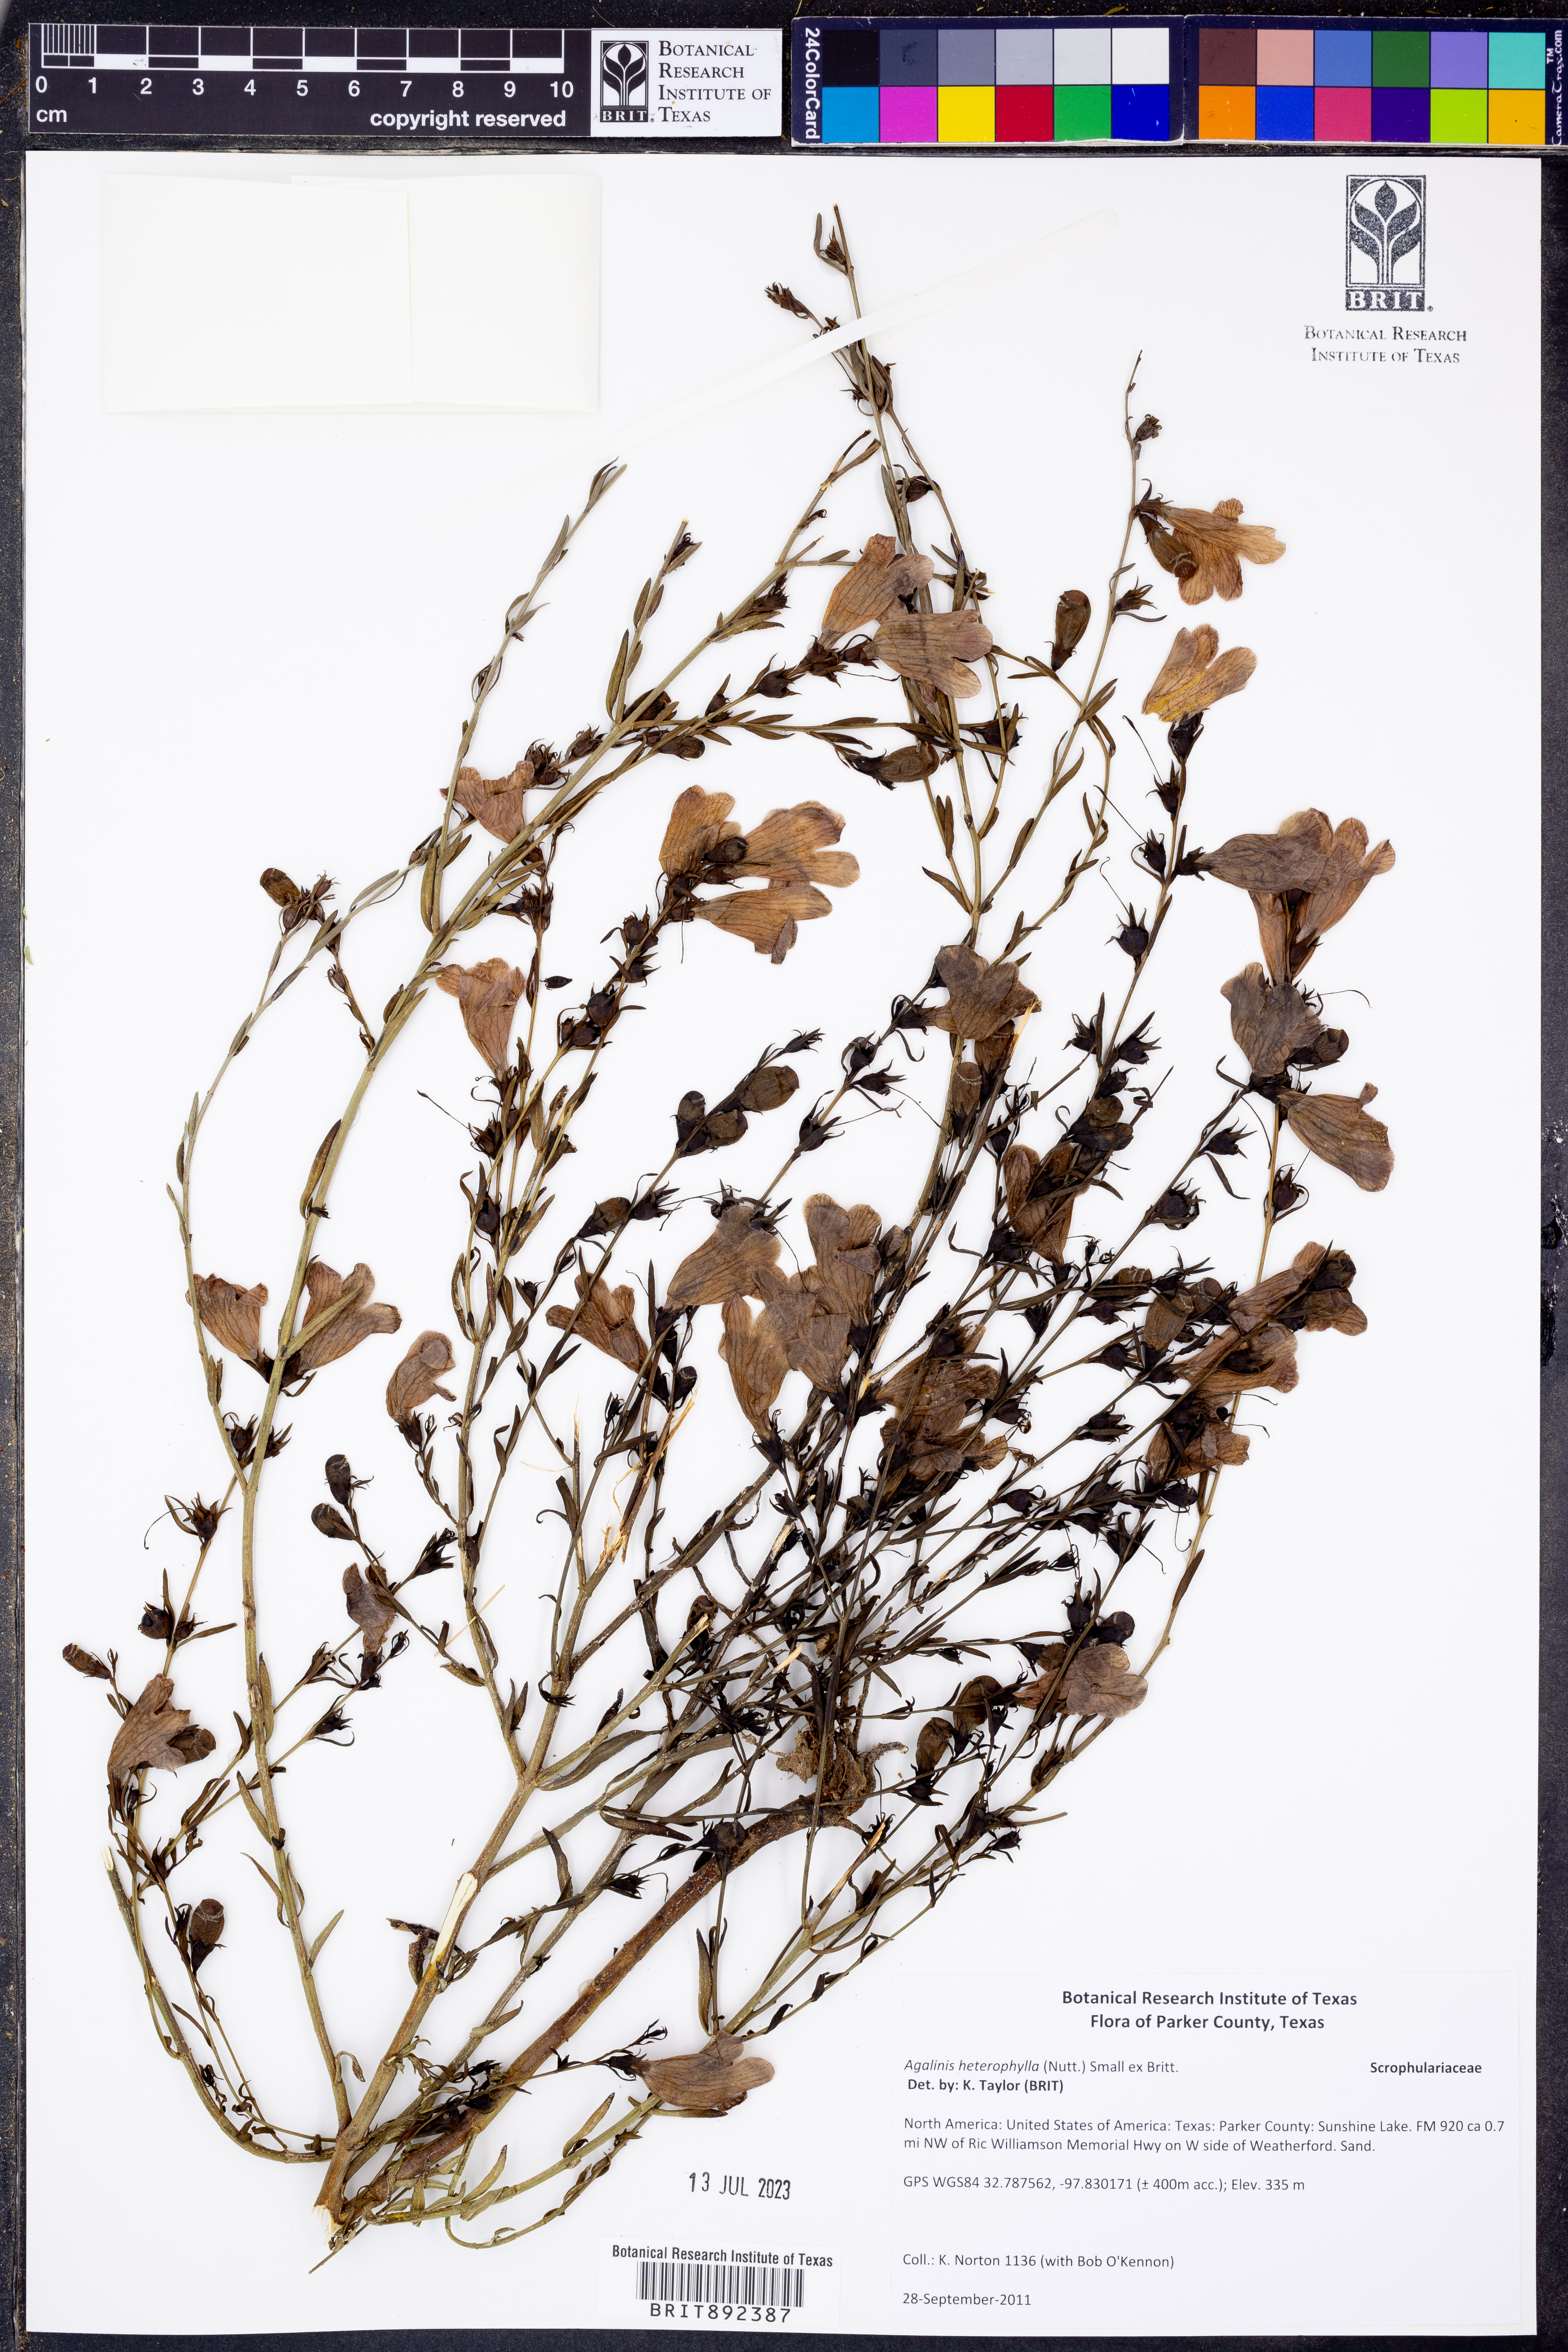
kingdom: Plantae
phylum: Tracheophyta
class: Magnoliopsida
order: Lamiales
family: Orobanchaceae
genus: Agalinis
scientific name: Agalinis heterophylla
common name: Prairie agalinis
